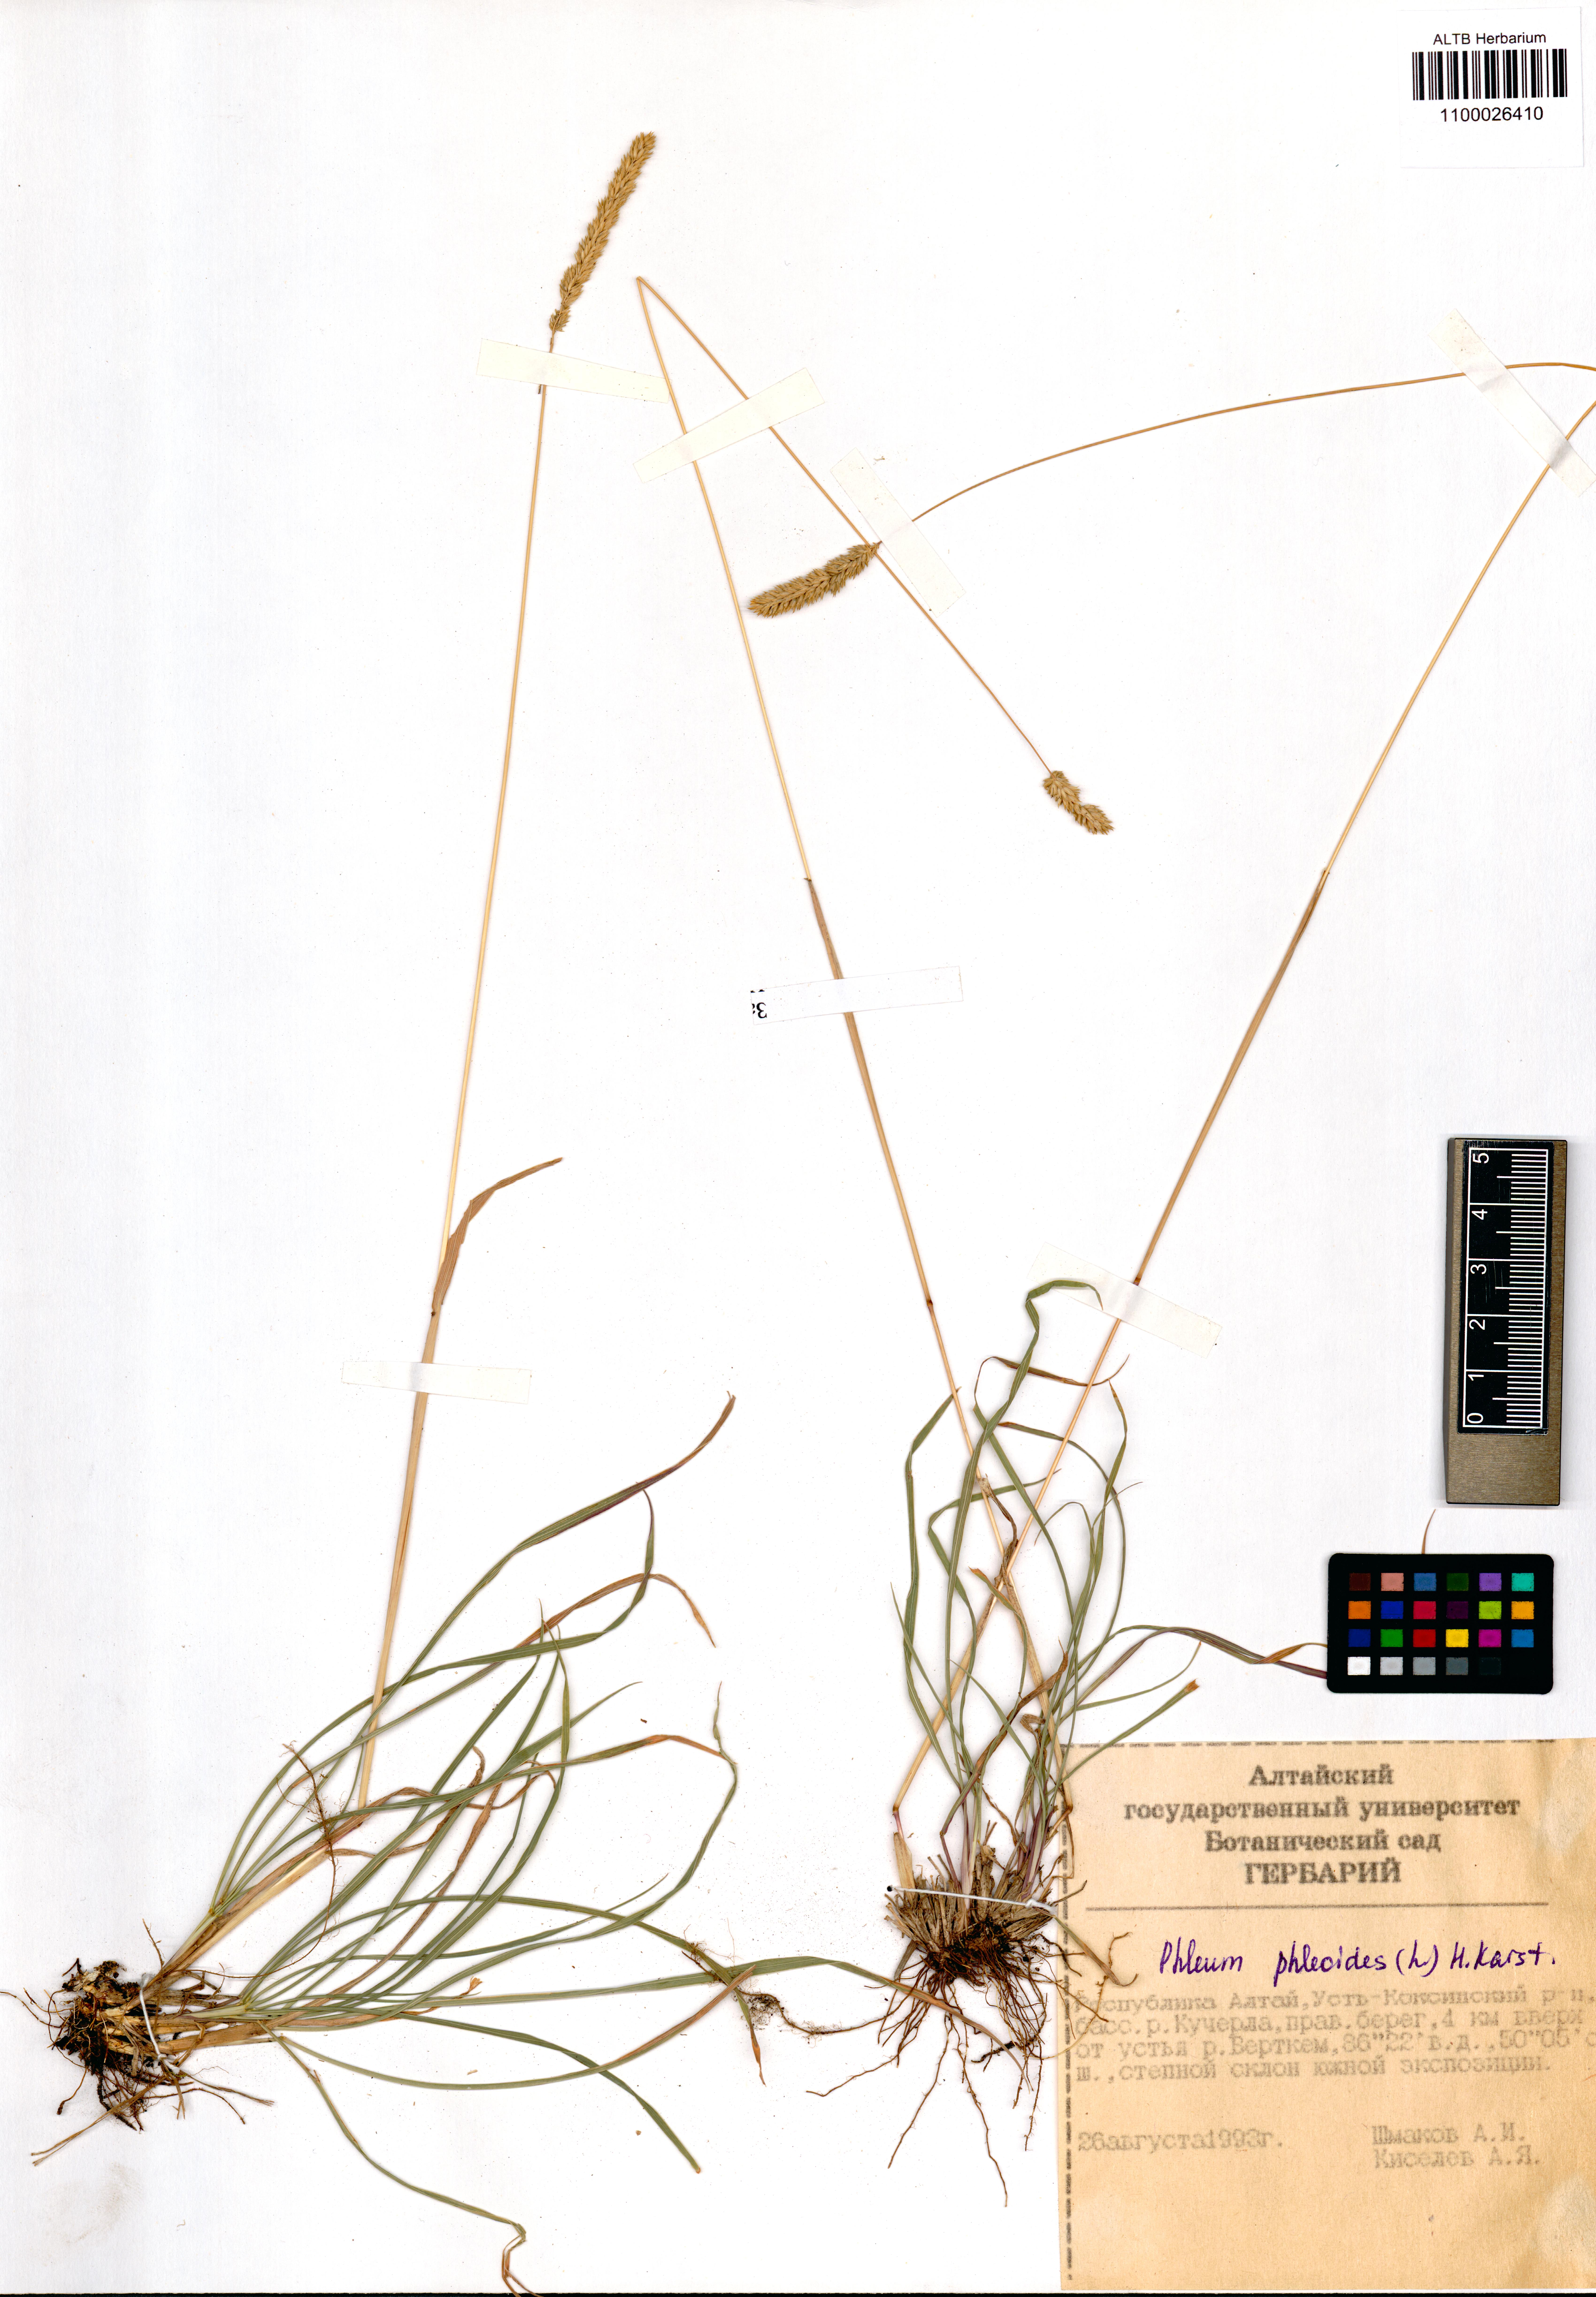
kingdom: Plantae
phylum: Tracheophyta
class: Liliopsida
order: Poales
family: Poaceae
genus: Phleum
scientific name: Phleum phleoides
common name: Purple-stem cat's-tail
